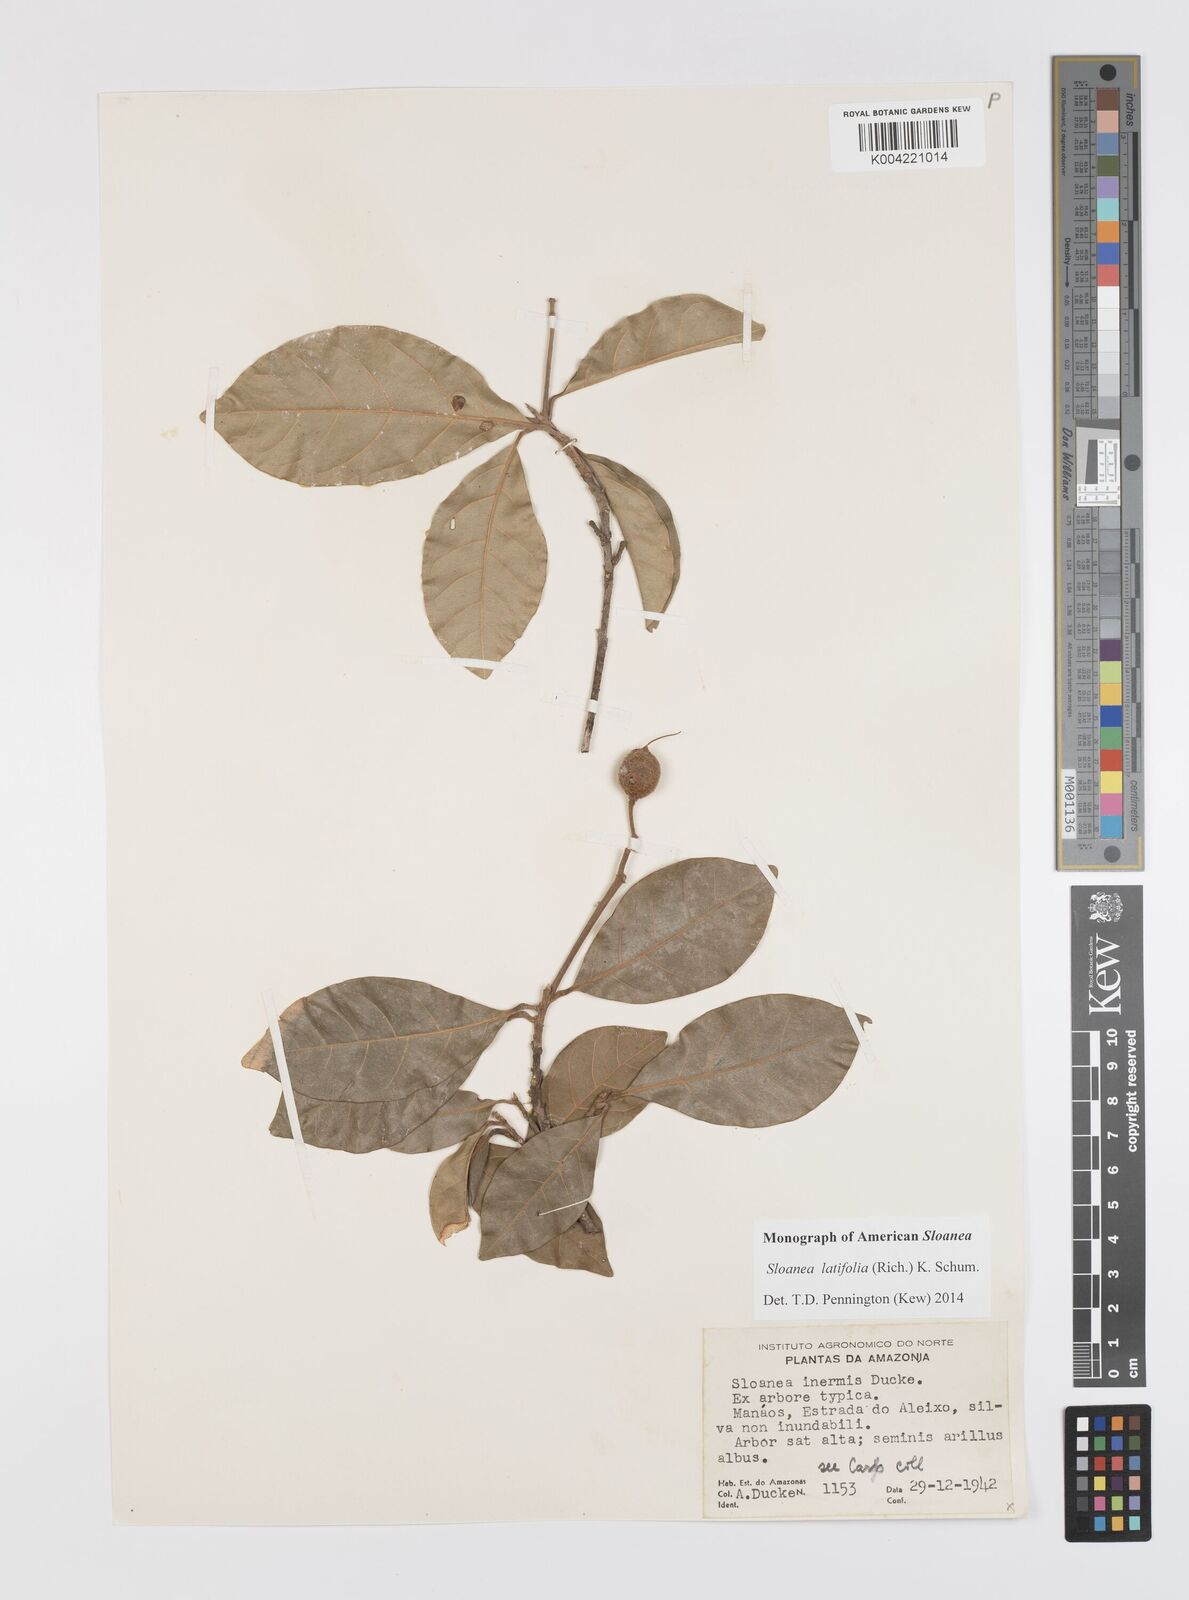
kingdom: Plantae
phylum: Tracheophyta
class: Magnoliopsida
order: Oxalidales
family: Elaeocarpaceae
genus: Sloanea
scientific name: Sloanea latifolia
